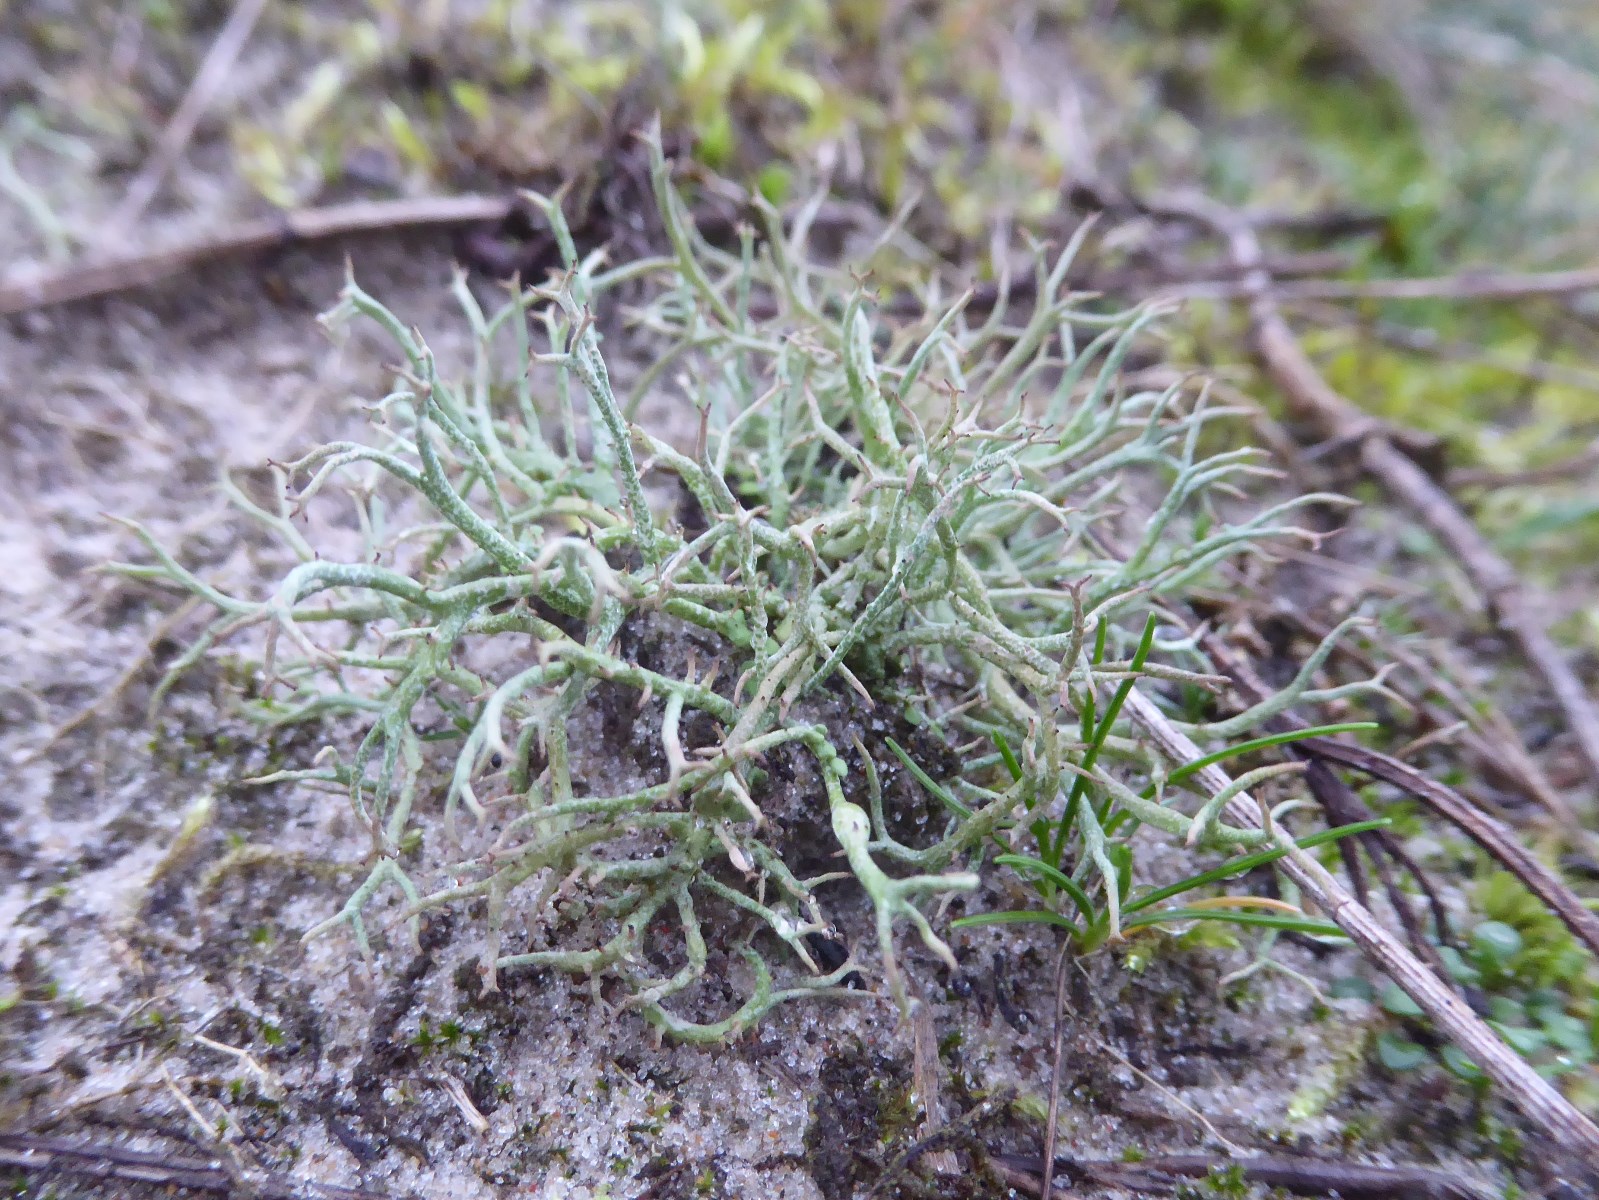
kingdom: Fungi
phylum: Ascomycota
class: Lecanoromycetes
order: Lecanorales
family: Cladoniaceae
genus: Cladonia
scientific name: Cladonia furcata
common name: kløftet bægerlav
